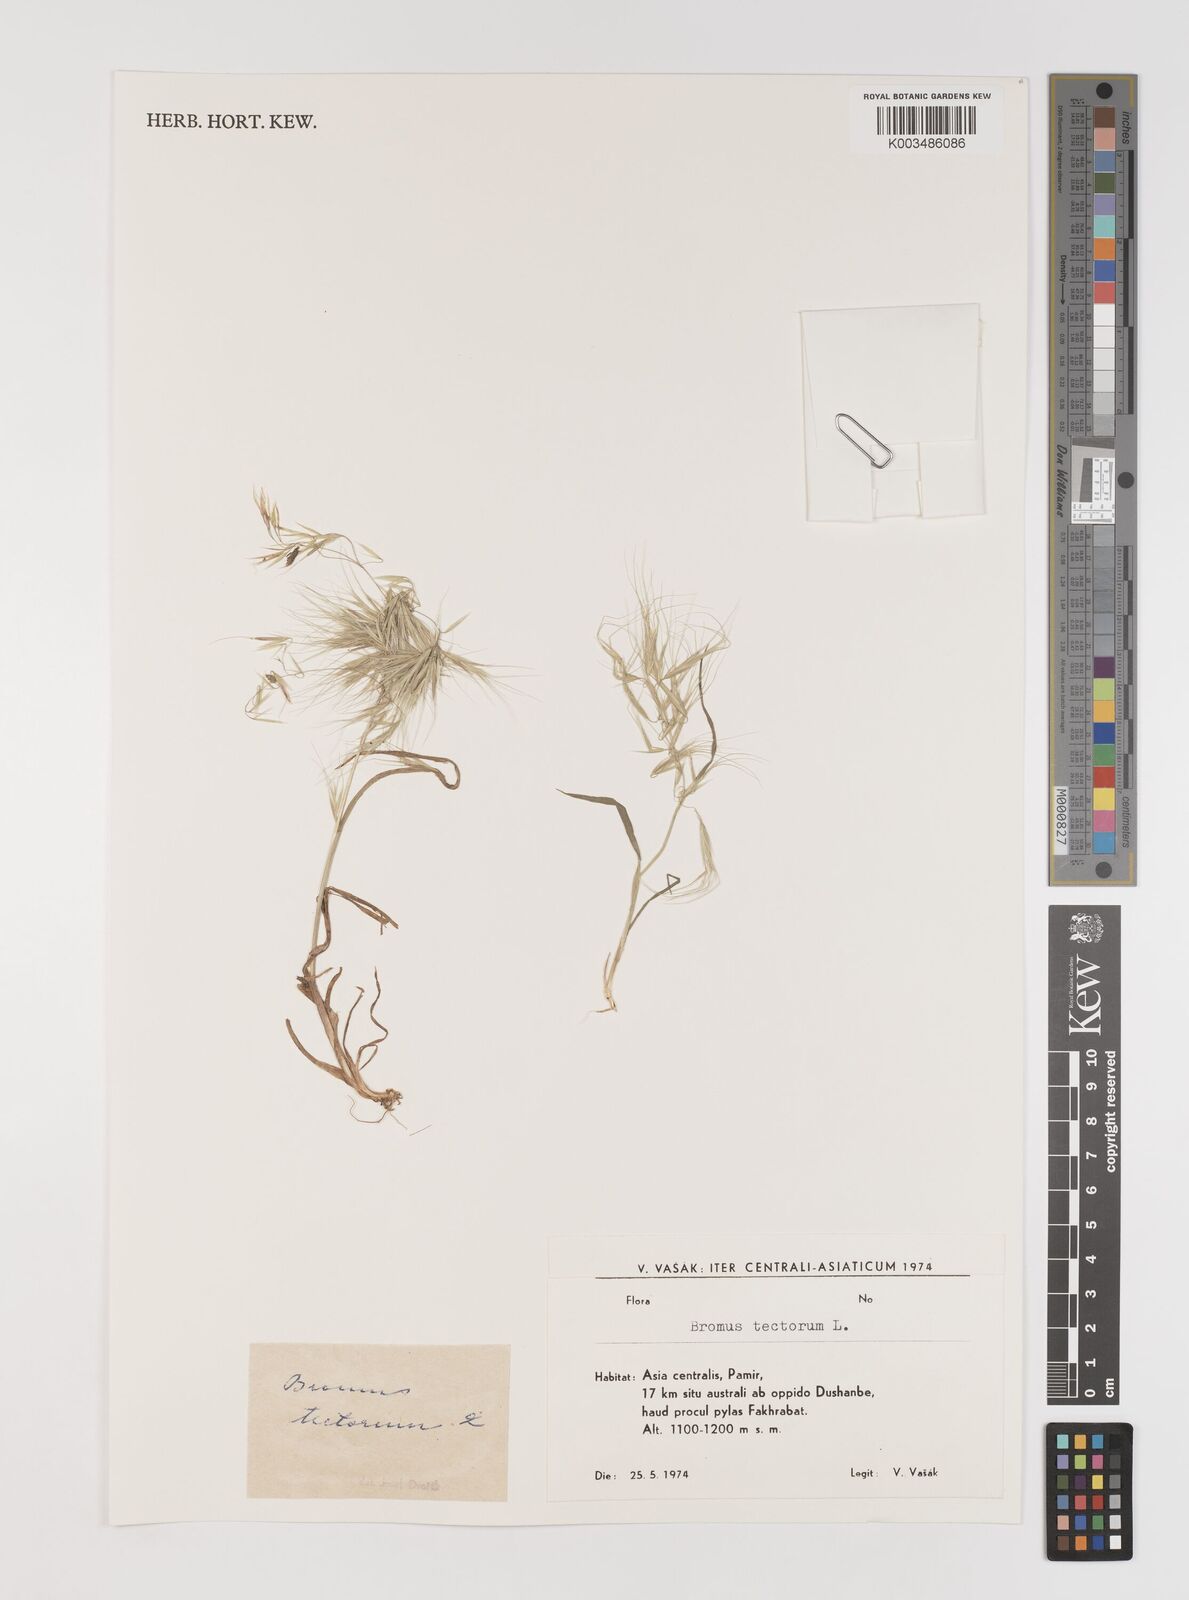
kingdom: Plantae
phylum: Tracheophyta
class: Liliopsida
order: Poales
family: Poaceae
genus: Bromus
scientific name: Bromus tectorum
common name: Cheatgrass
